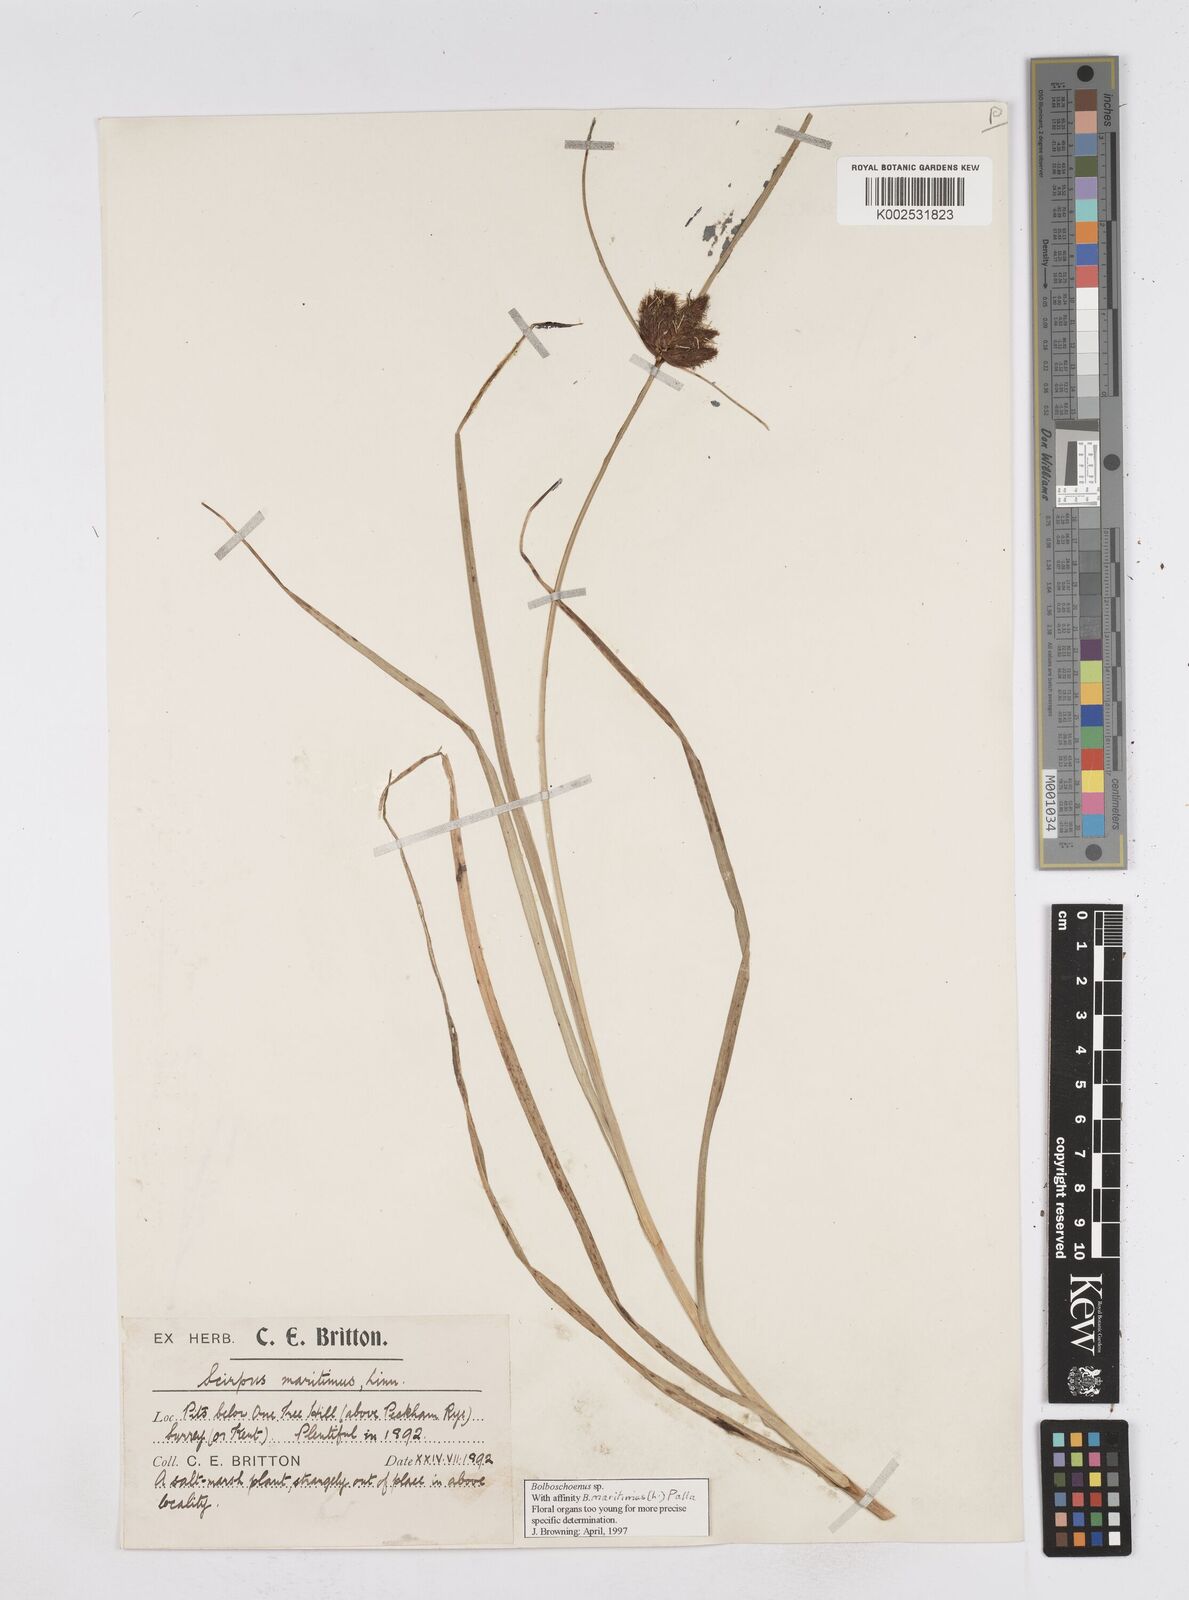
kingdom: Plantae
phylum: Tracheophyta
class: Liliopsida
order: Poales
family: Cyperaceae
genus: Bolboschoenus
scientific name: Bolboschoenus maritimus
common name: Sea club-rush
